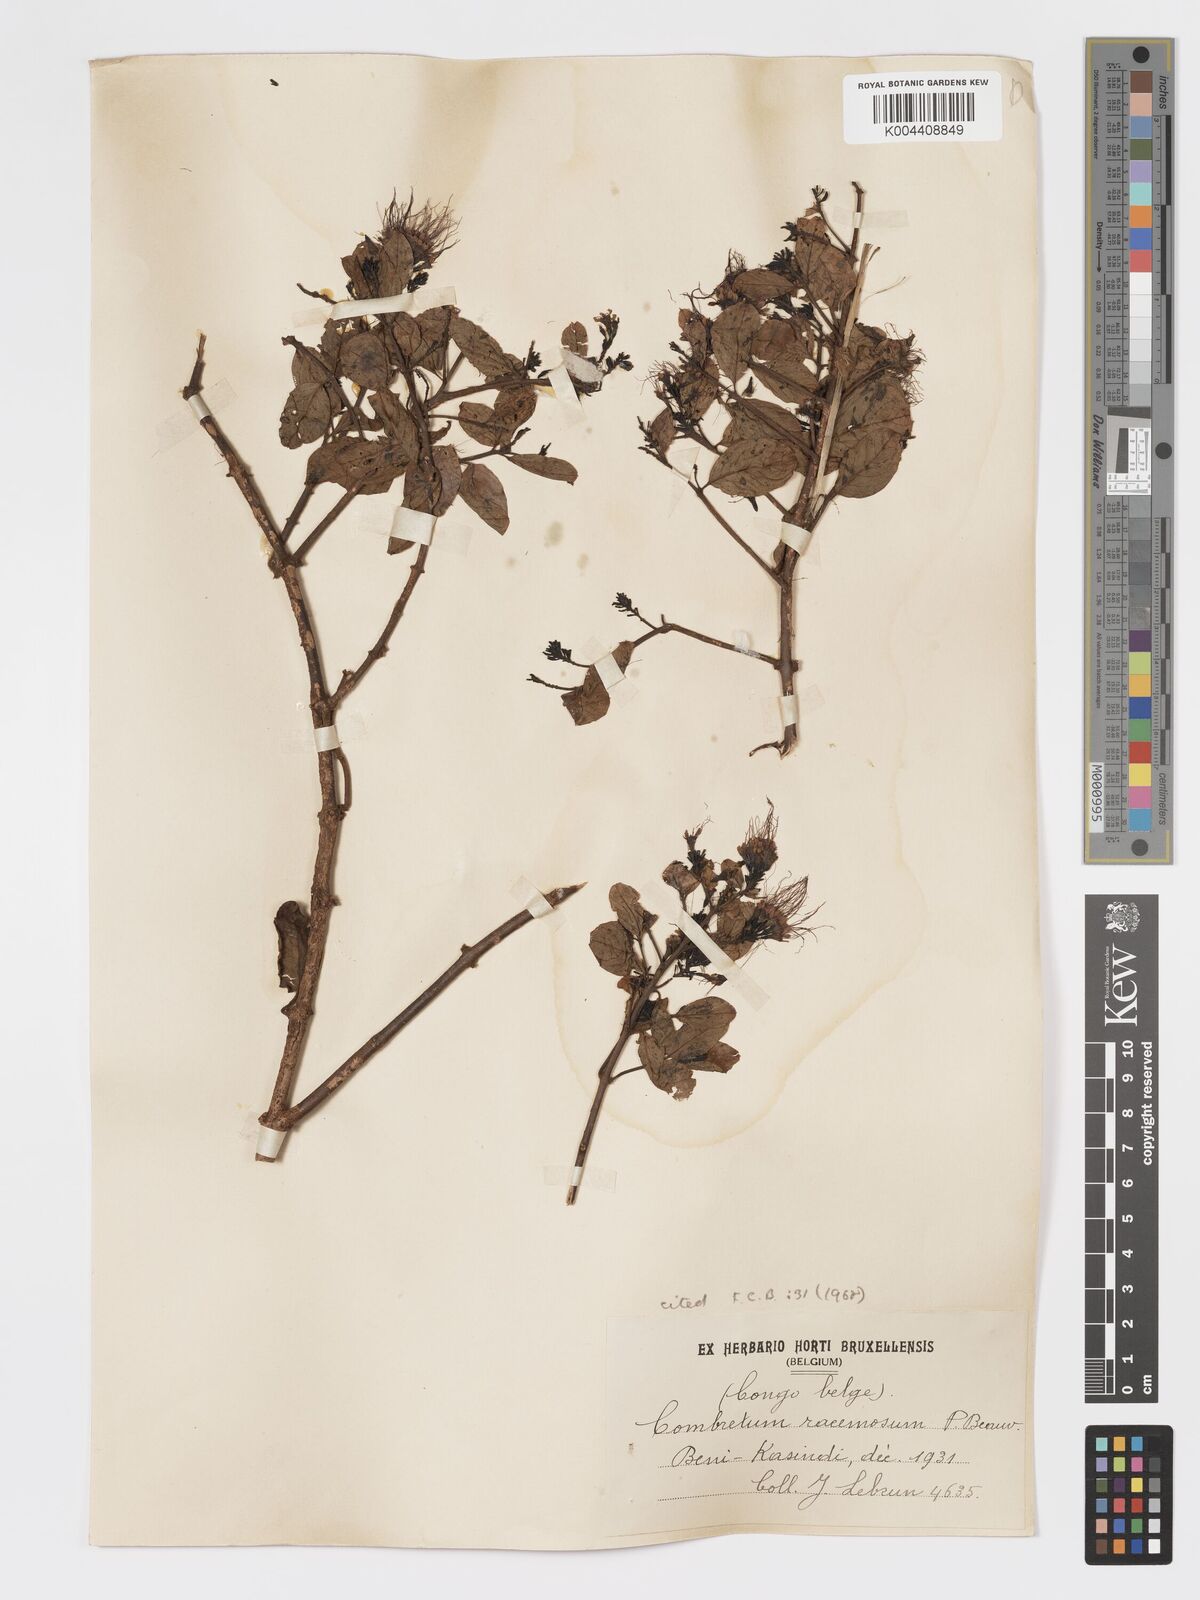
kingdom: Plantae
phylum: Tracheophyta
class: Magnoliopsida
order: Myrtales
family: Combretaceae
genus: Combretum
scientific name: Combretum racemosum
